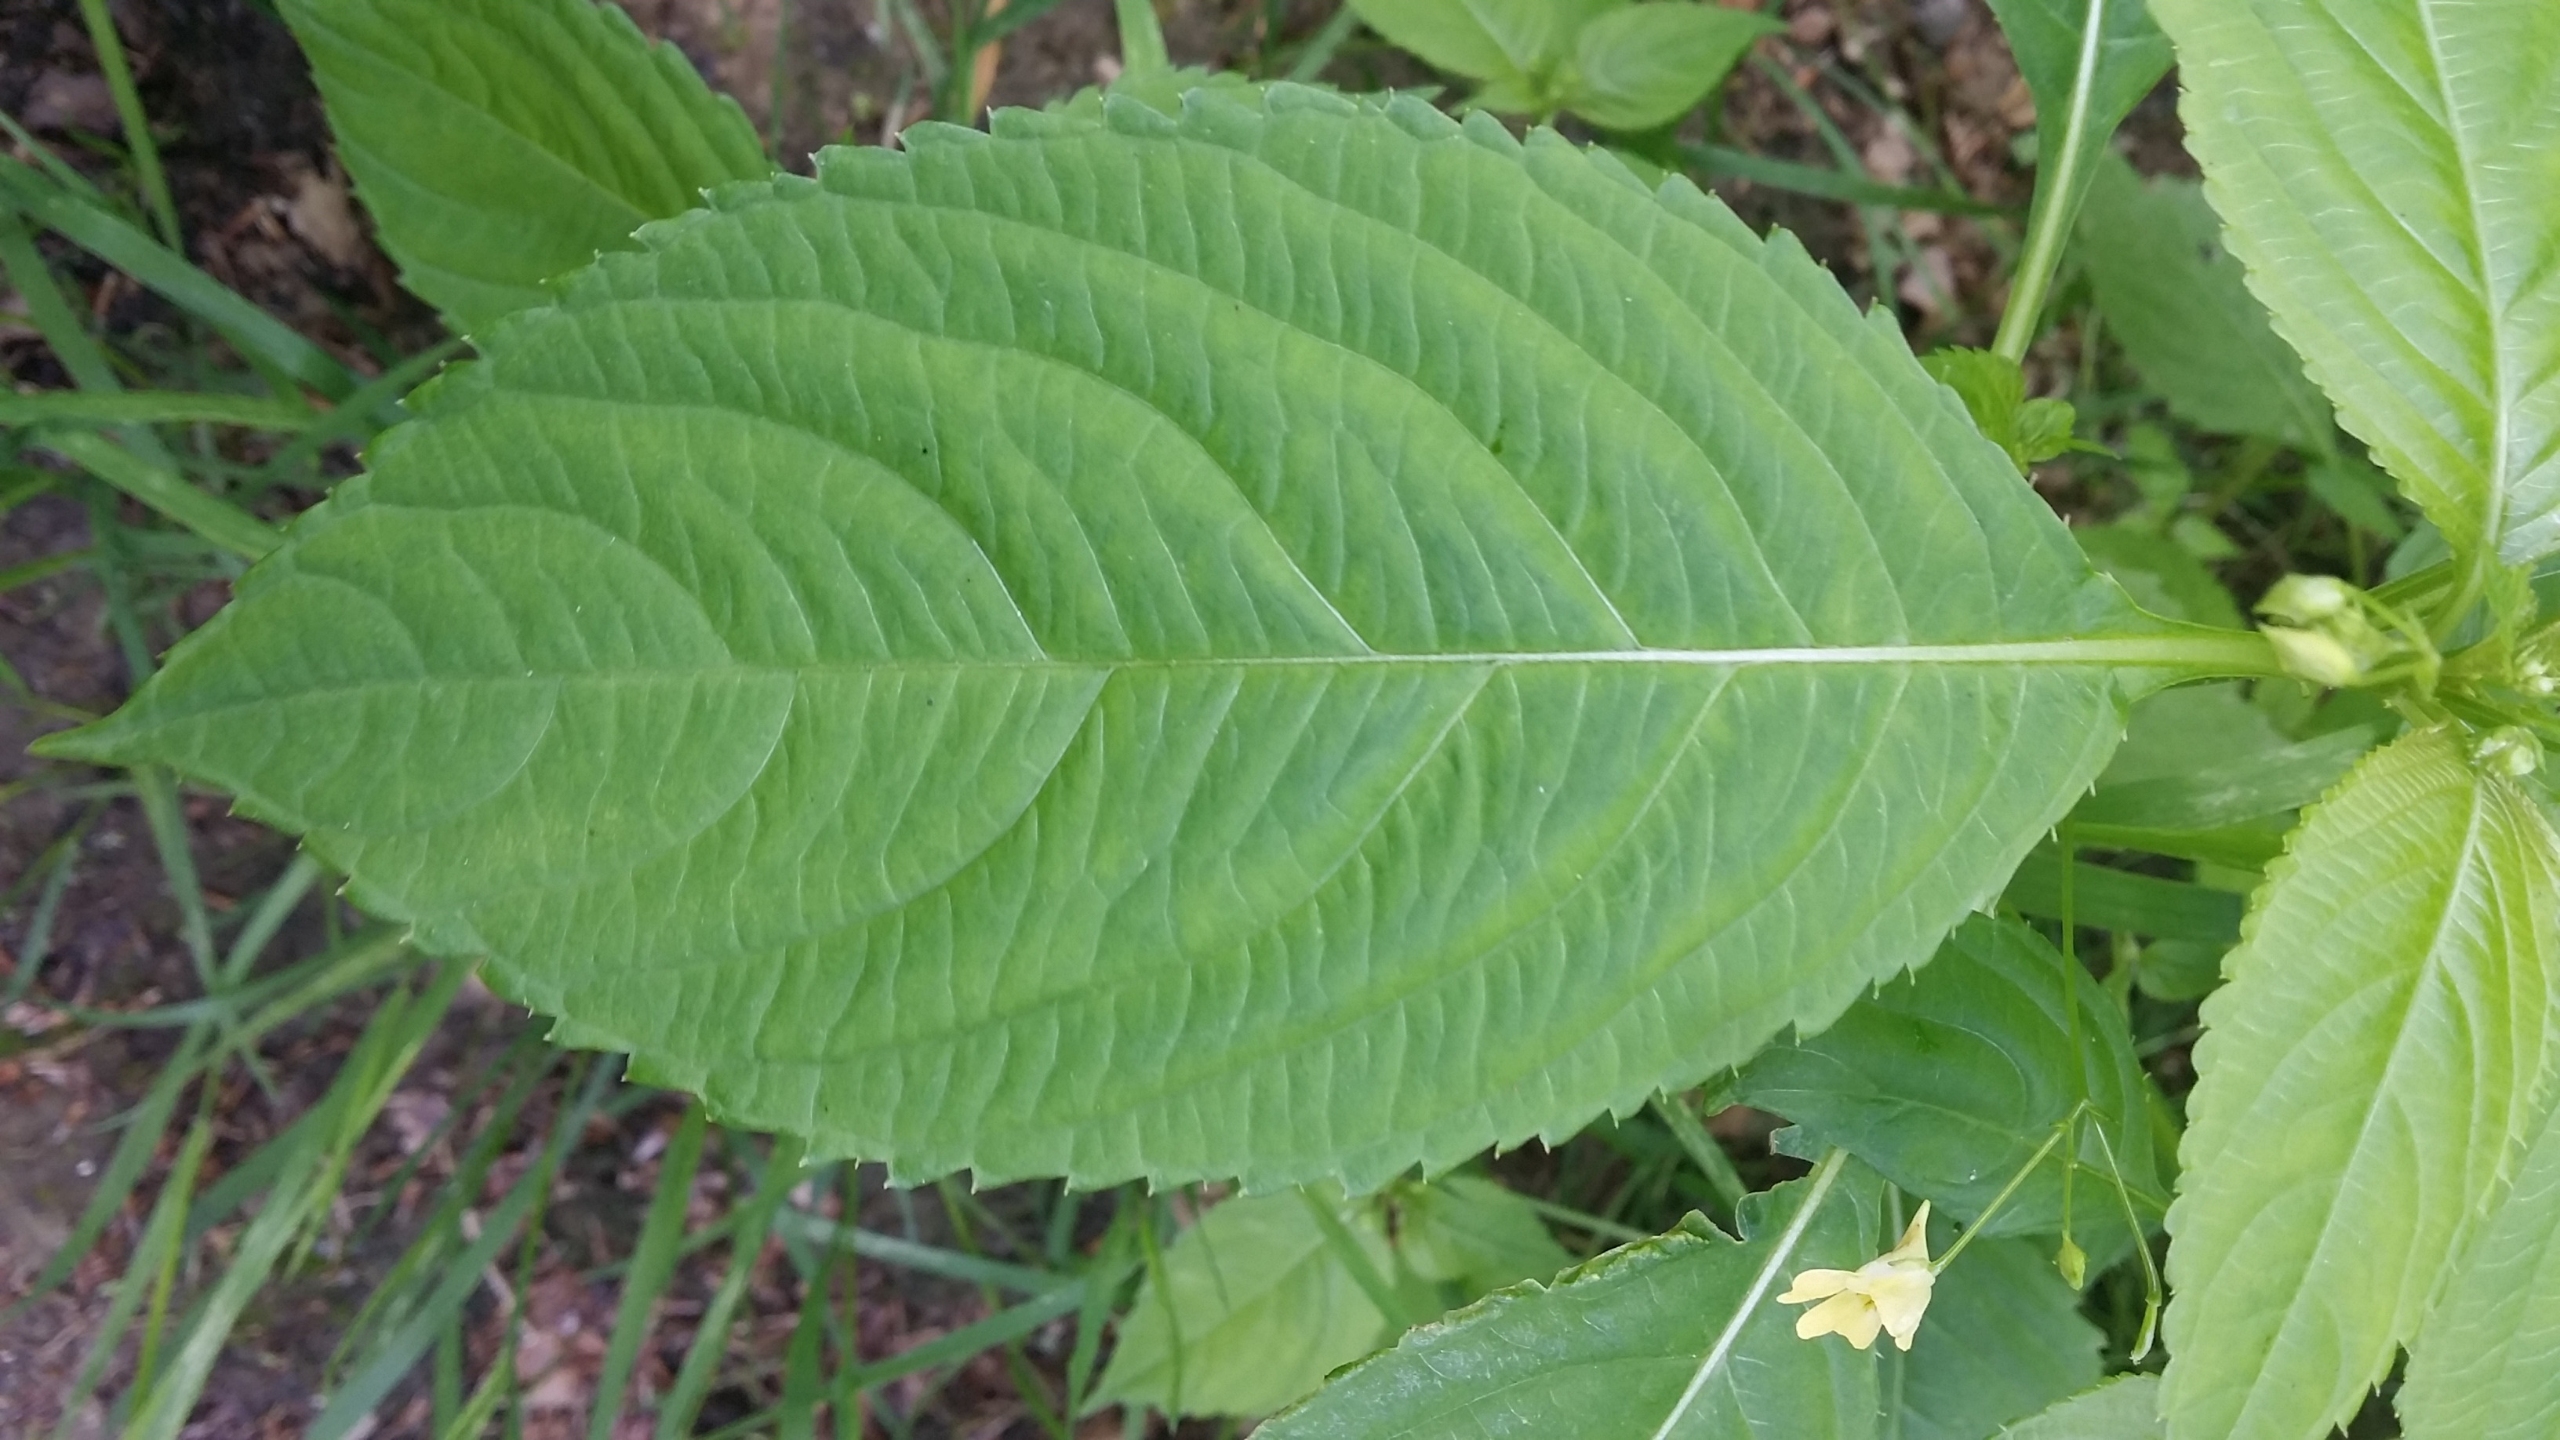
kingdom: Plantae
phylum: Tracheophyta
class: Magnoliopsida
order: Ericales
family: Balsaminaceae
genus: Impatiens
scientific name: Impatiens parviflora
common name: Småblomstret balsamin
